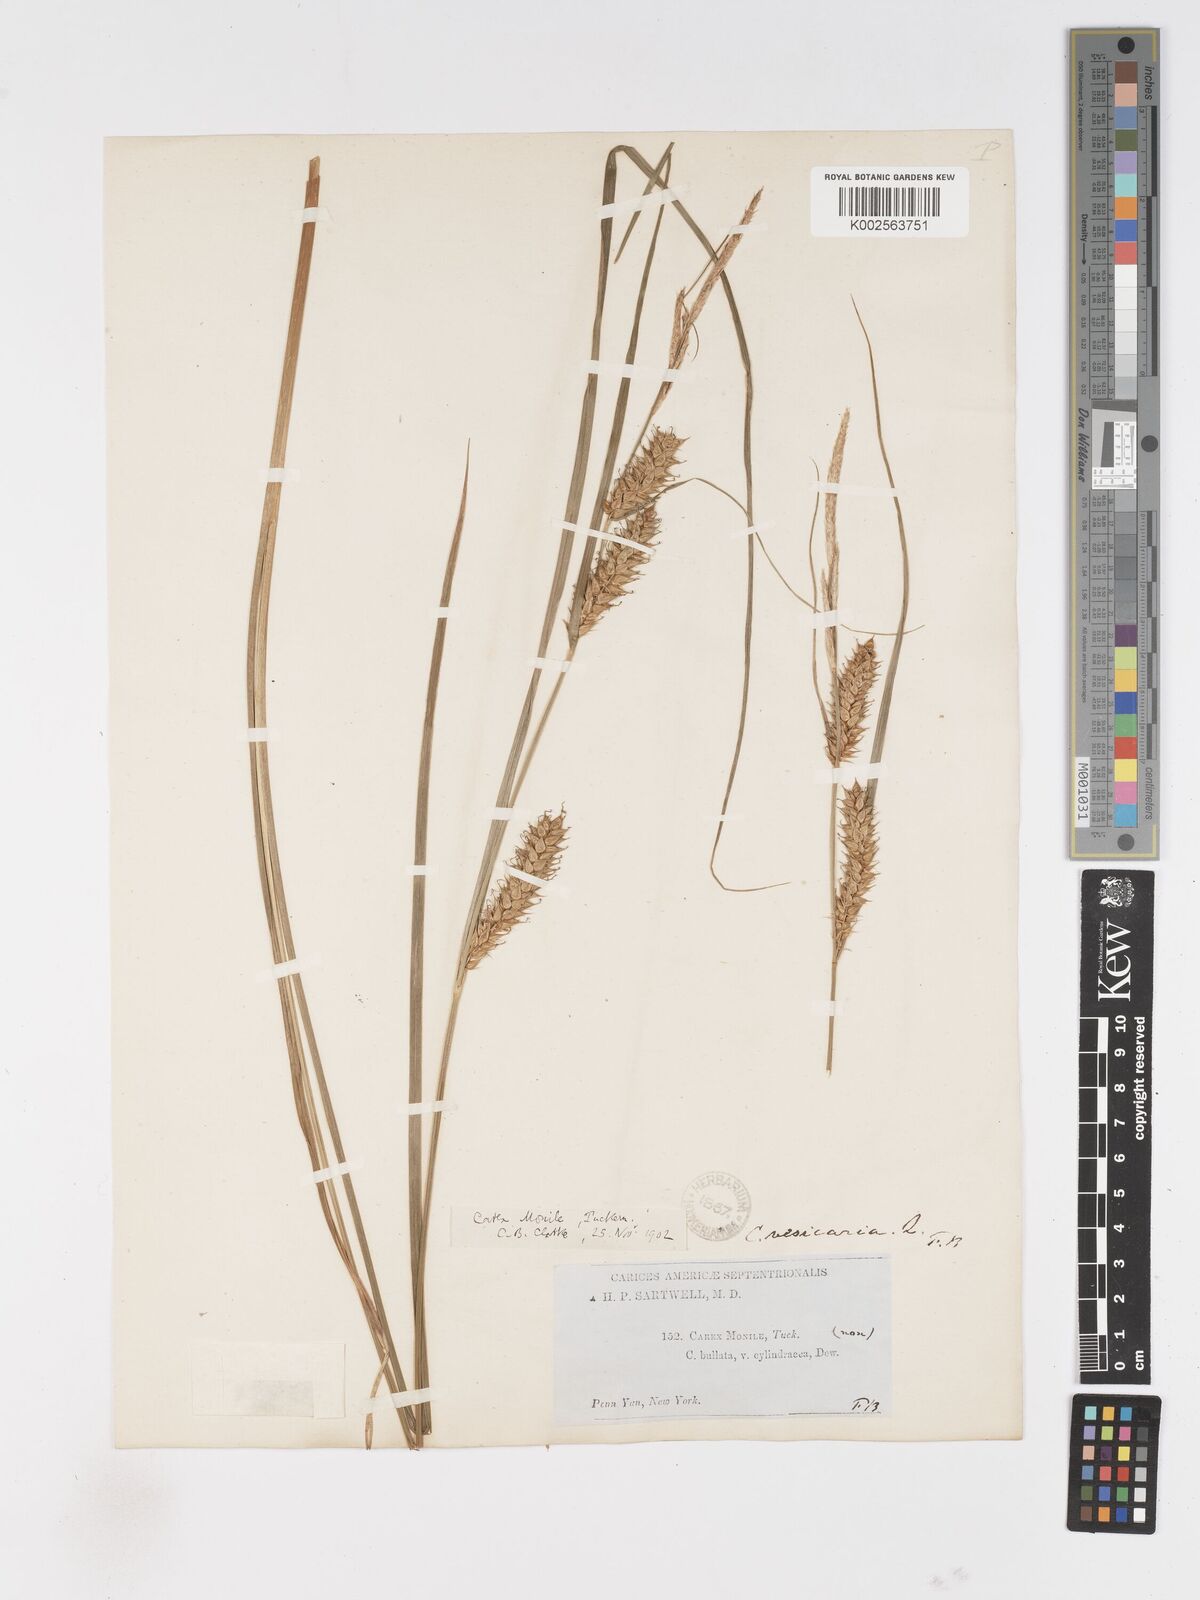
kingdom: Plantae
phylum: Tracheophyta
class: Liliopsida
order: Poales
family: Cyperaceae
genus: Carex
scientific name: Carex vesicaria
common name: Bladder-sedge
